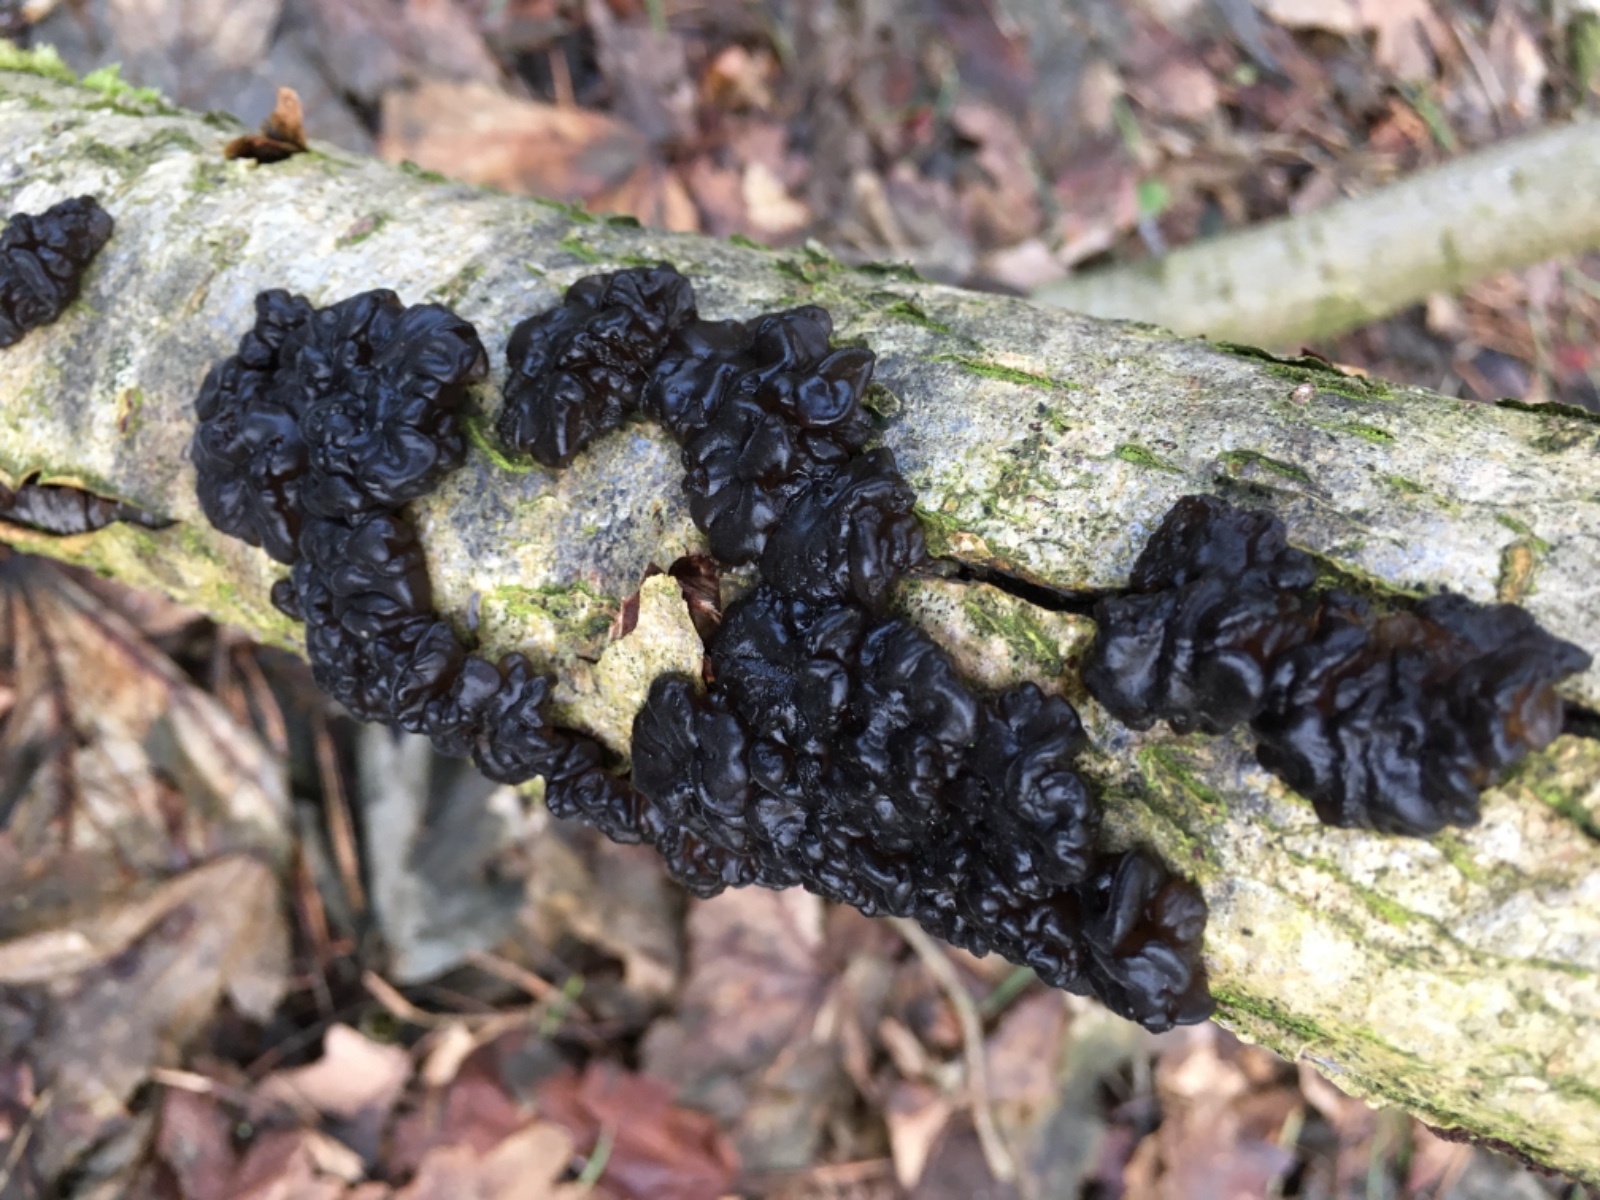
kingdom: Fungi
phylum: Basidiomycota
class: Agaricomycetes
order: Auriculariales
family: Auriculariaceae
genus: Exidia
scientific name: Exidia nigricans
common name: almindelig bævretop
